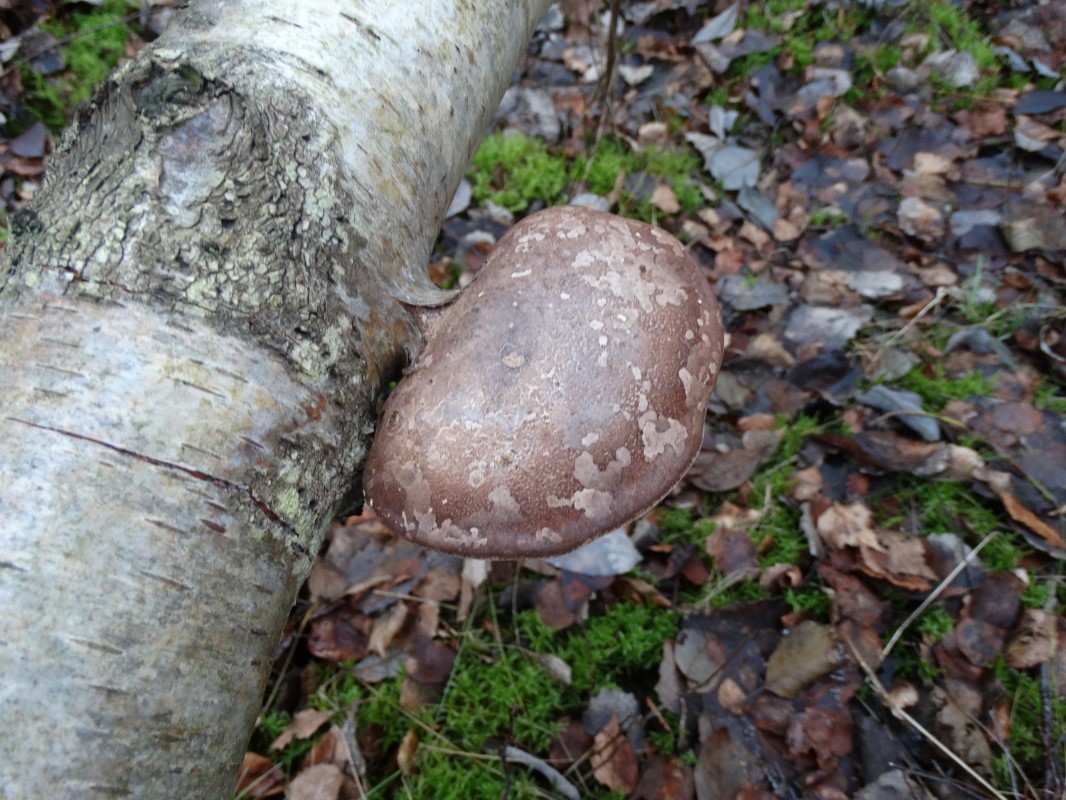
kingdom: Fungi
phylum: Basidiomycota
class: Agaricomycetes
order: Polyporales
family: Fomitopsidaceae
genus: Fomitopsis
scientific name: Fomitopsis betulina
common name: birkeporesvamp
